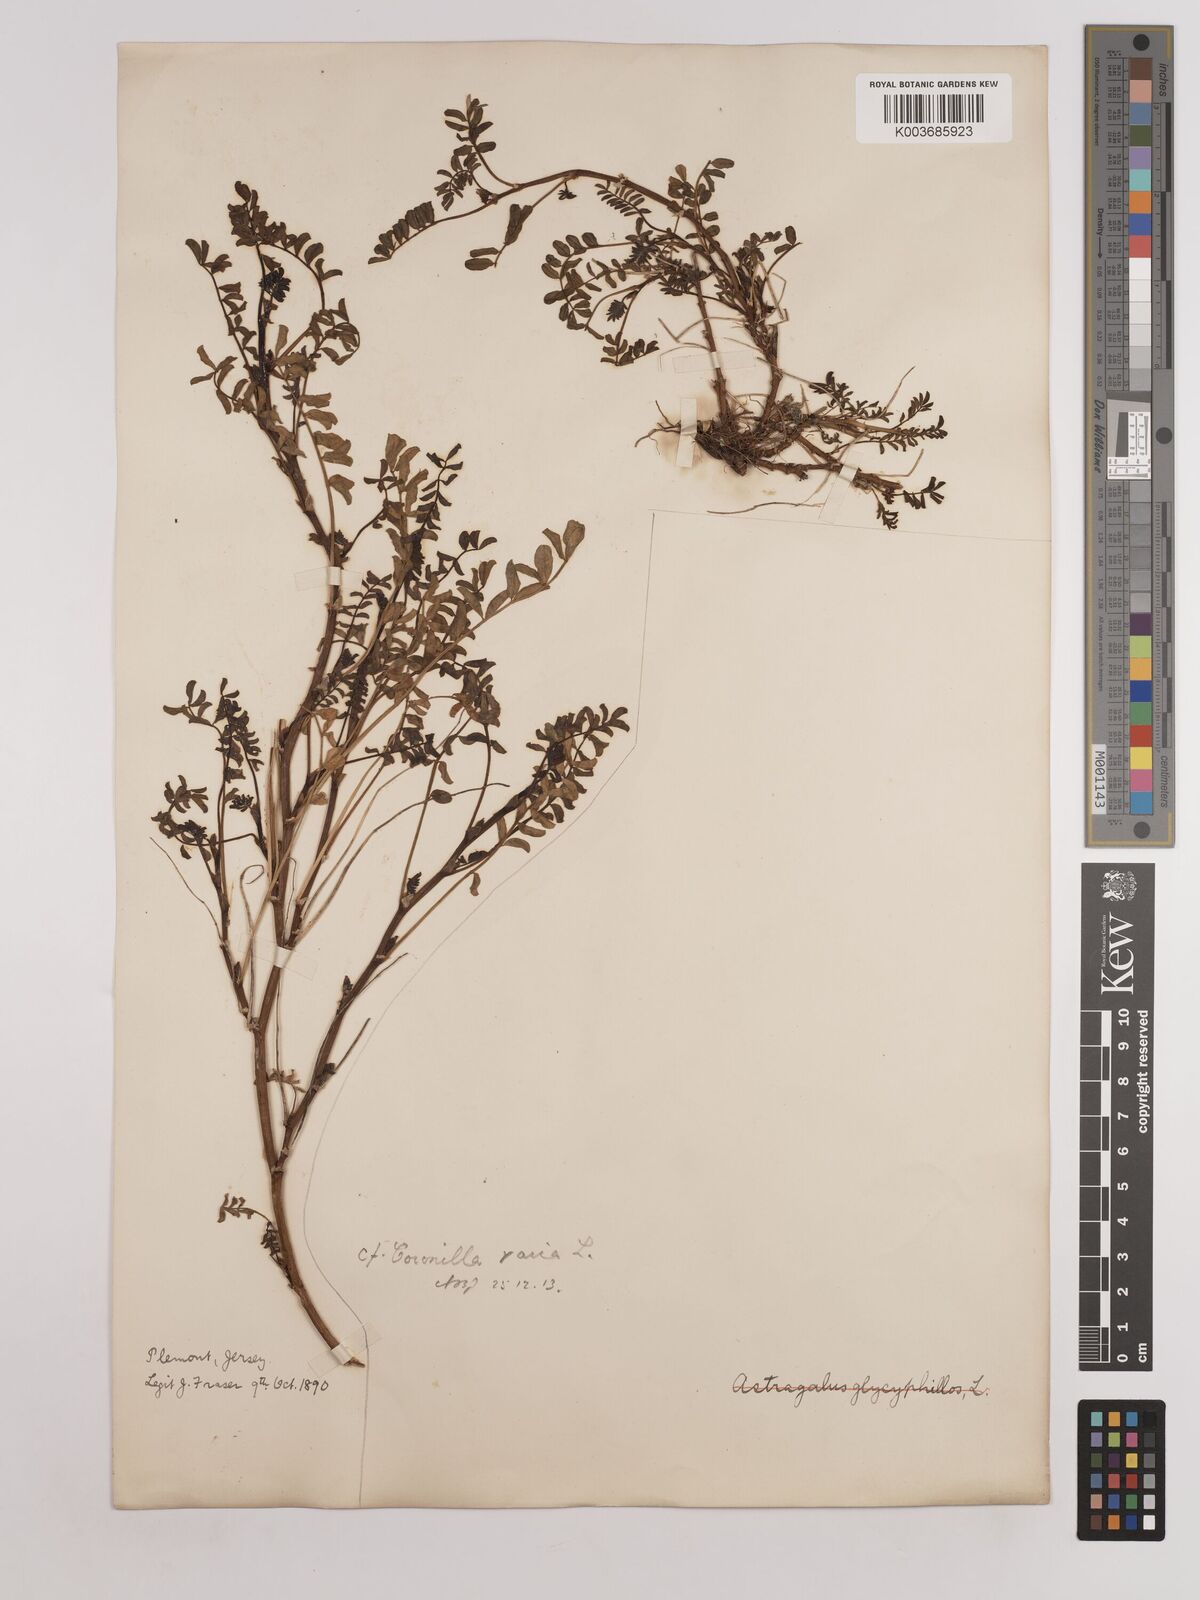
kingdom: Plantae
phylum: Tracheophyta
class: Magnoliopsida
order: Fabales
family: Fabaceae
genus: Coronilla
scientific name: Coronilla varia
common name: Crownvetch
